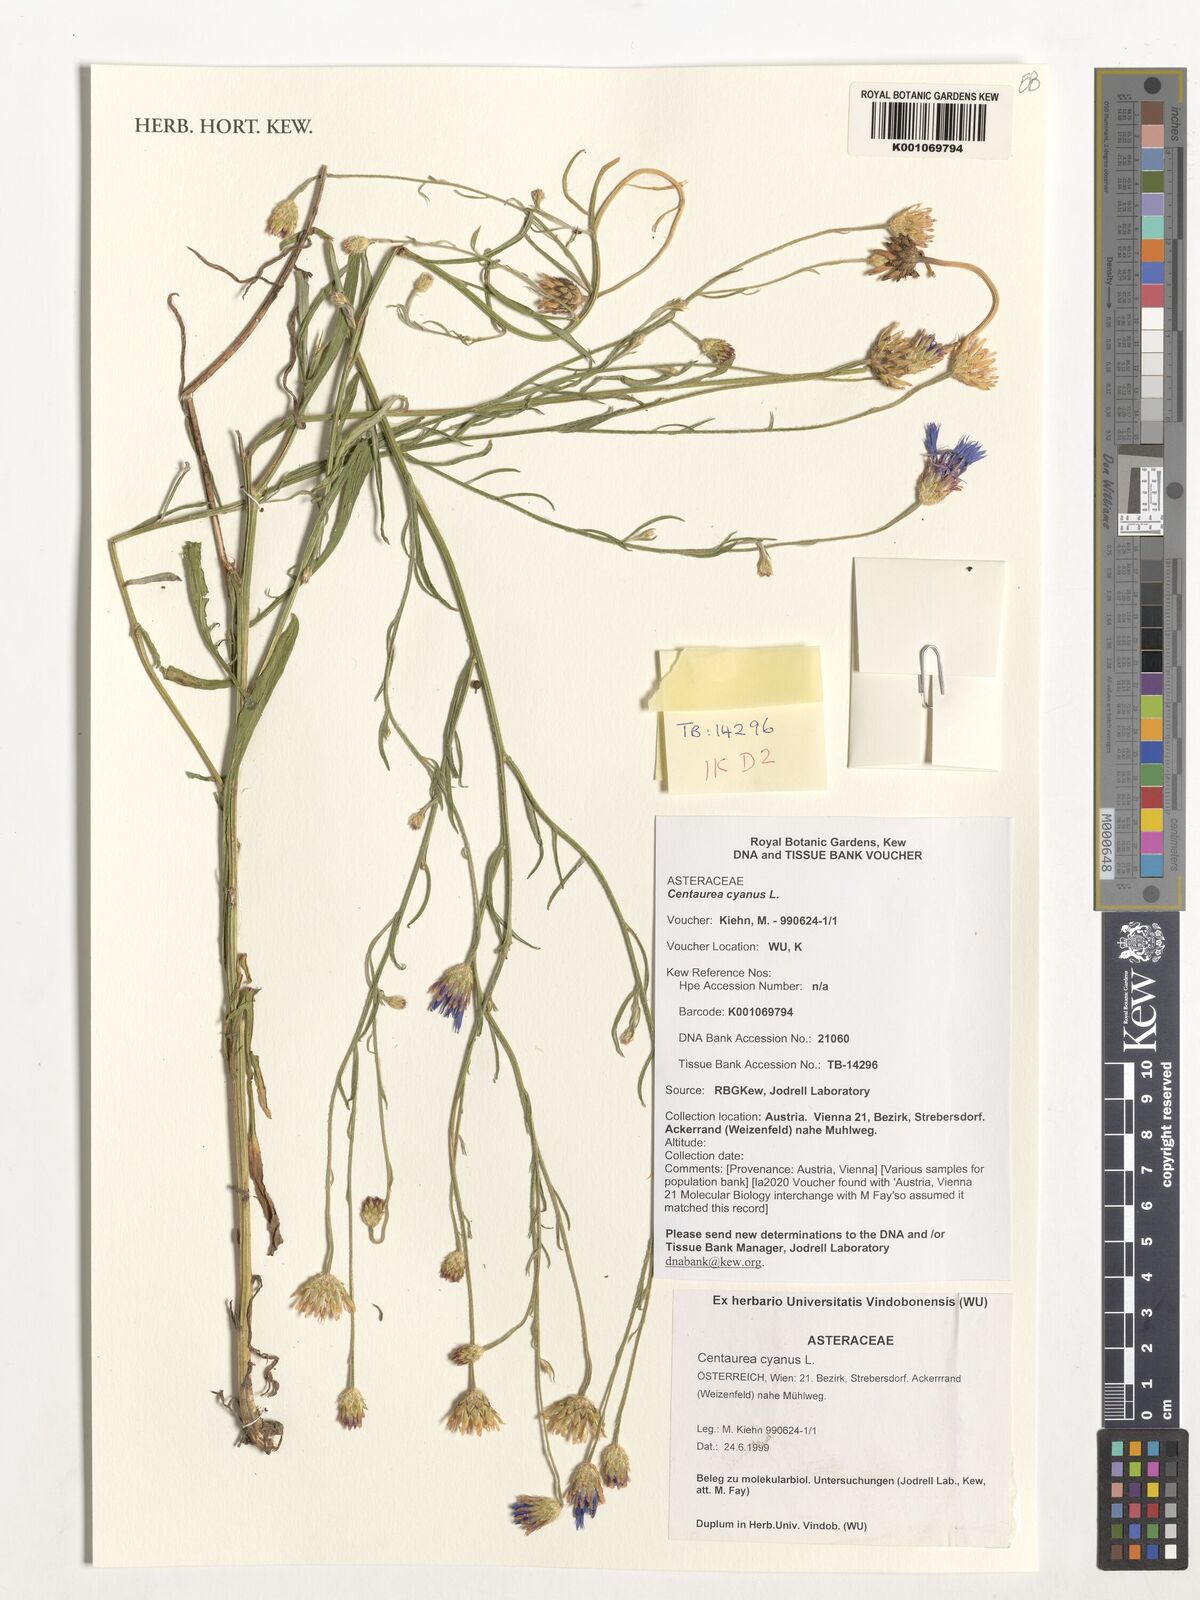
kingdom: Plantae
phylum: Tracheophyta
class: Magnoliopsida
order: Asterales
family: Asteraceae
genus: Centaurea
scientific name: Centaurea cyanus
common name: Cornflower
